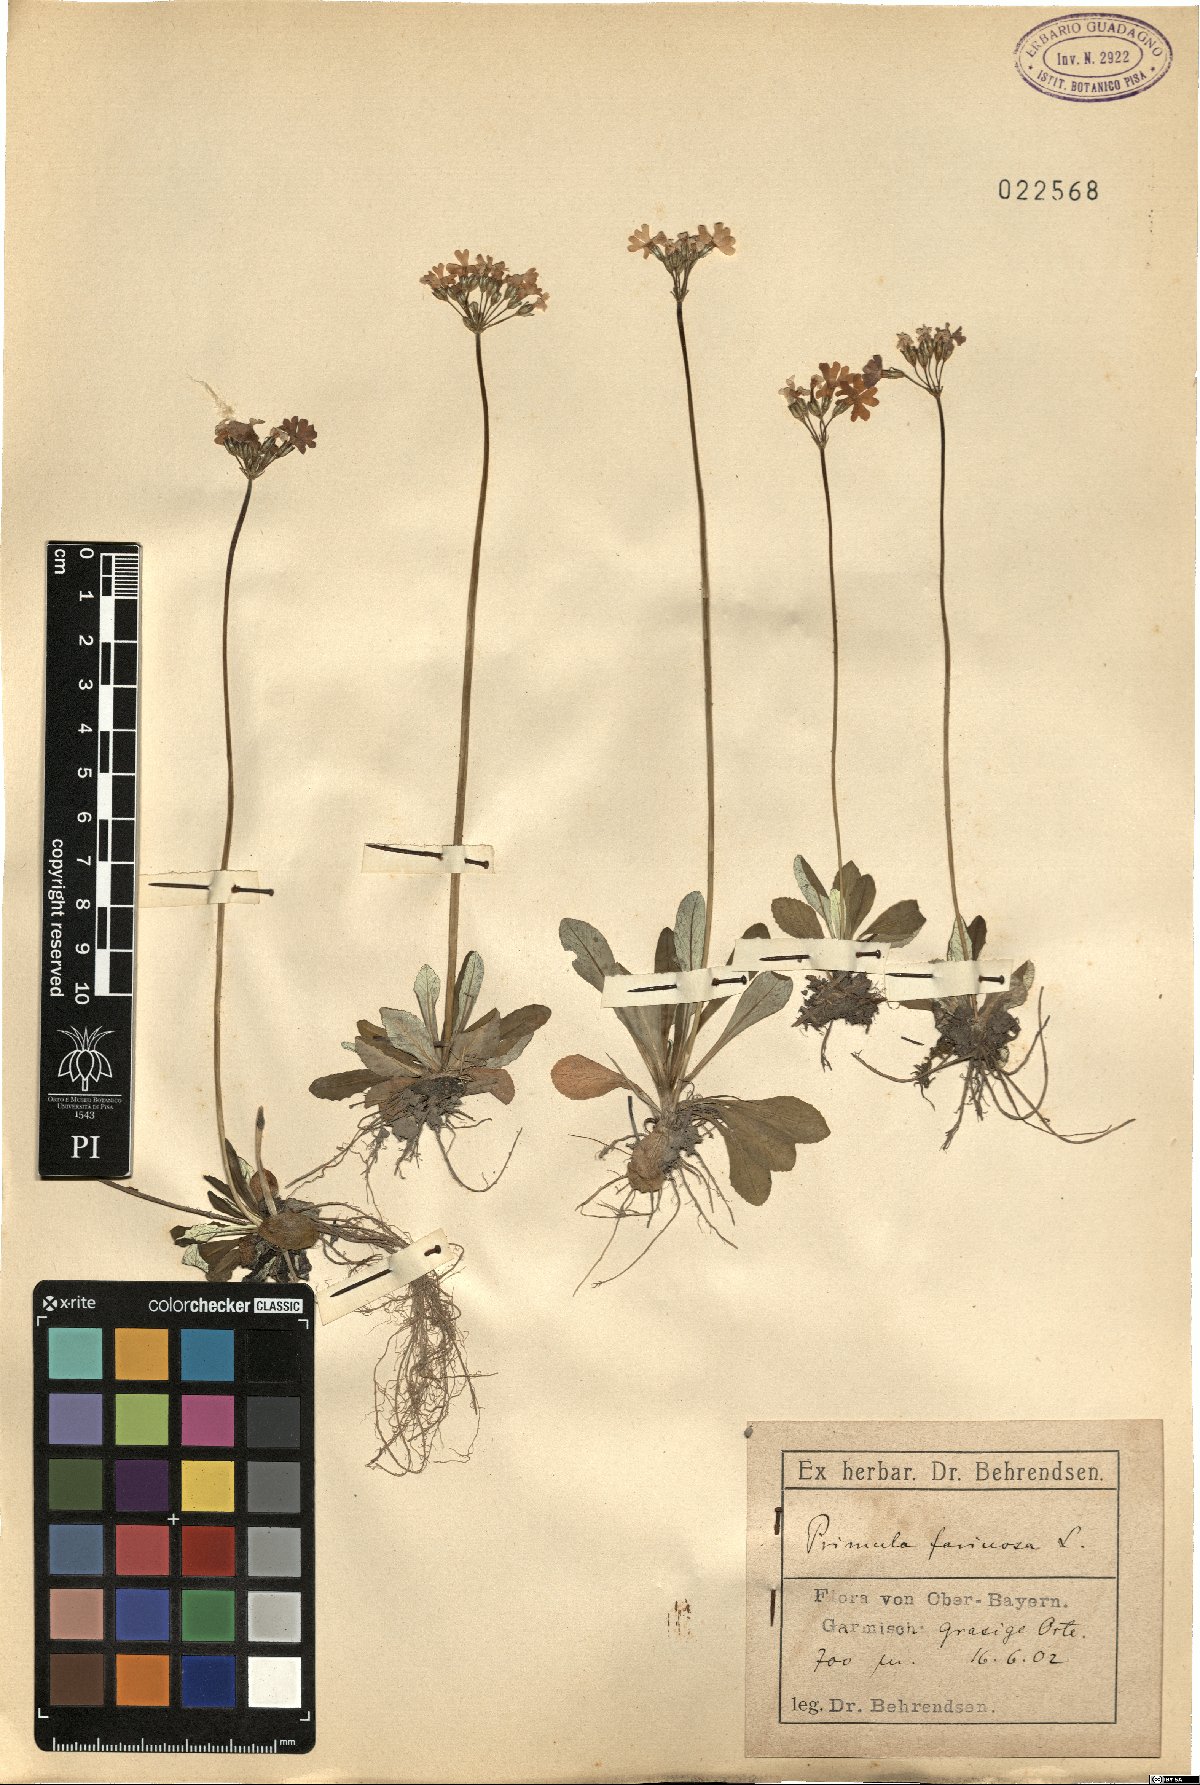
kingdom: Plantae
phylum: Tracheophyta
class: Magnoliopsida
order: Ericales
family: Primulaceae
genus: Primula
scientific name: Primula farinosa
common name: Bird's-eye primrose
